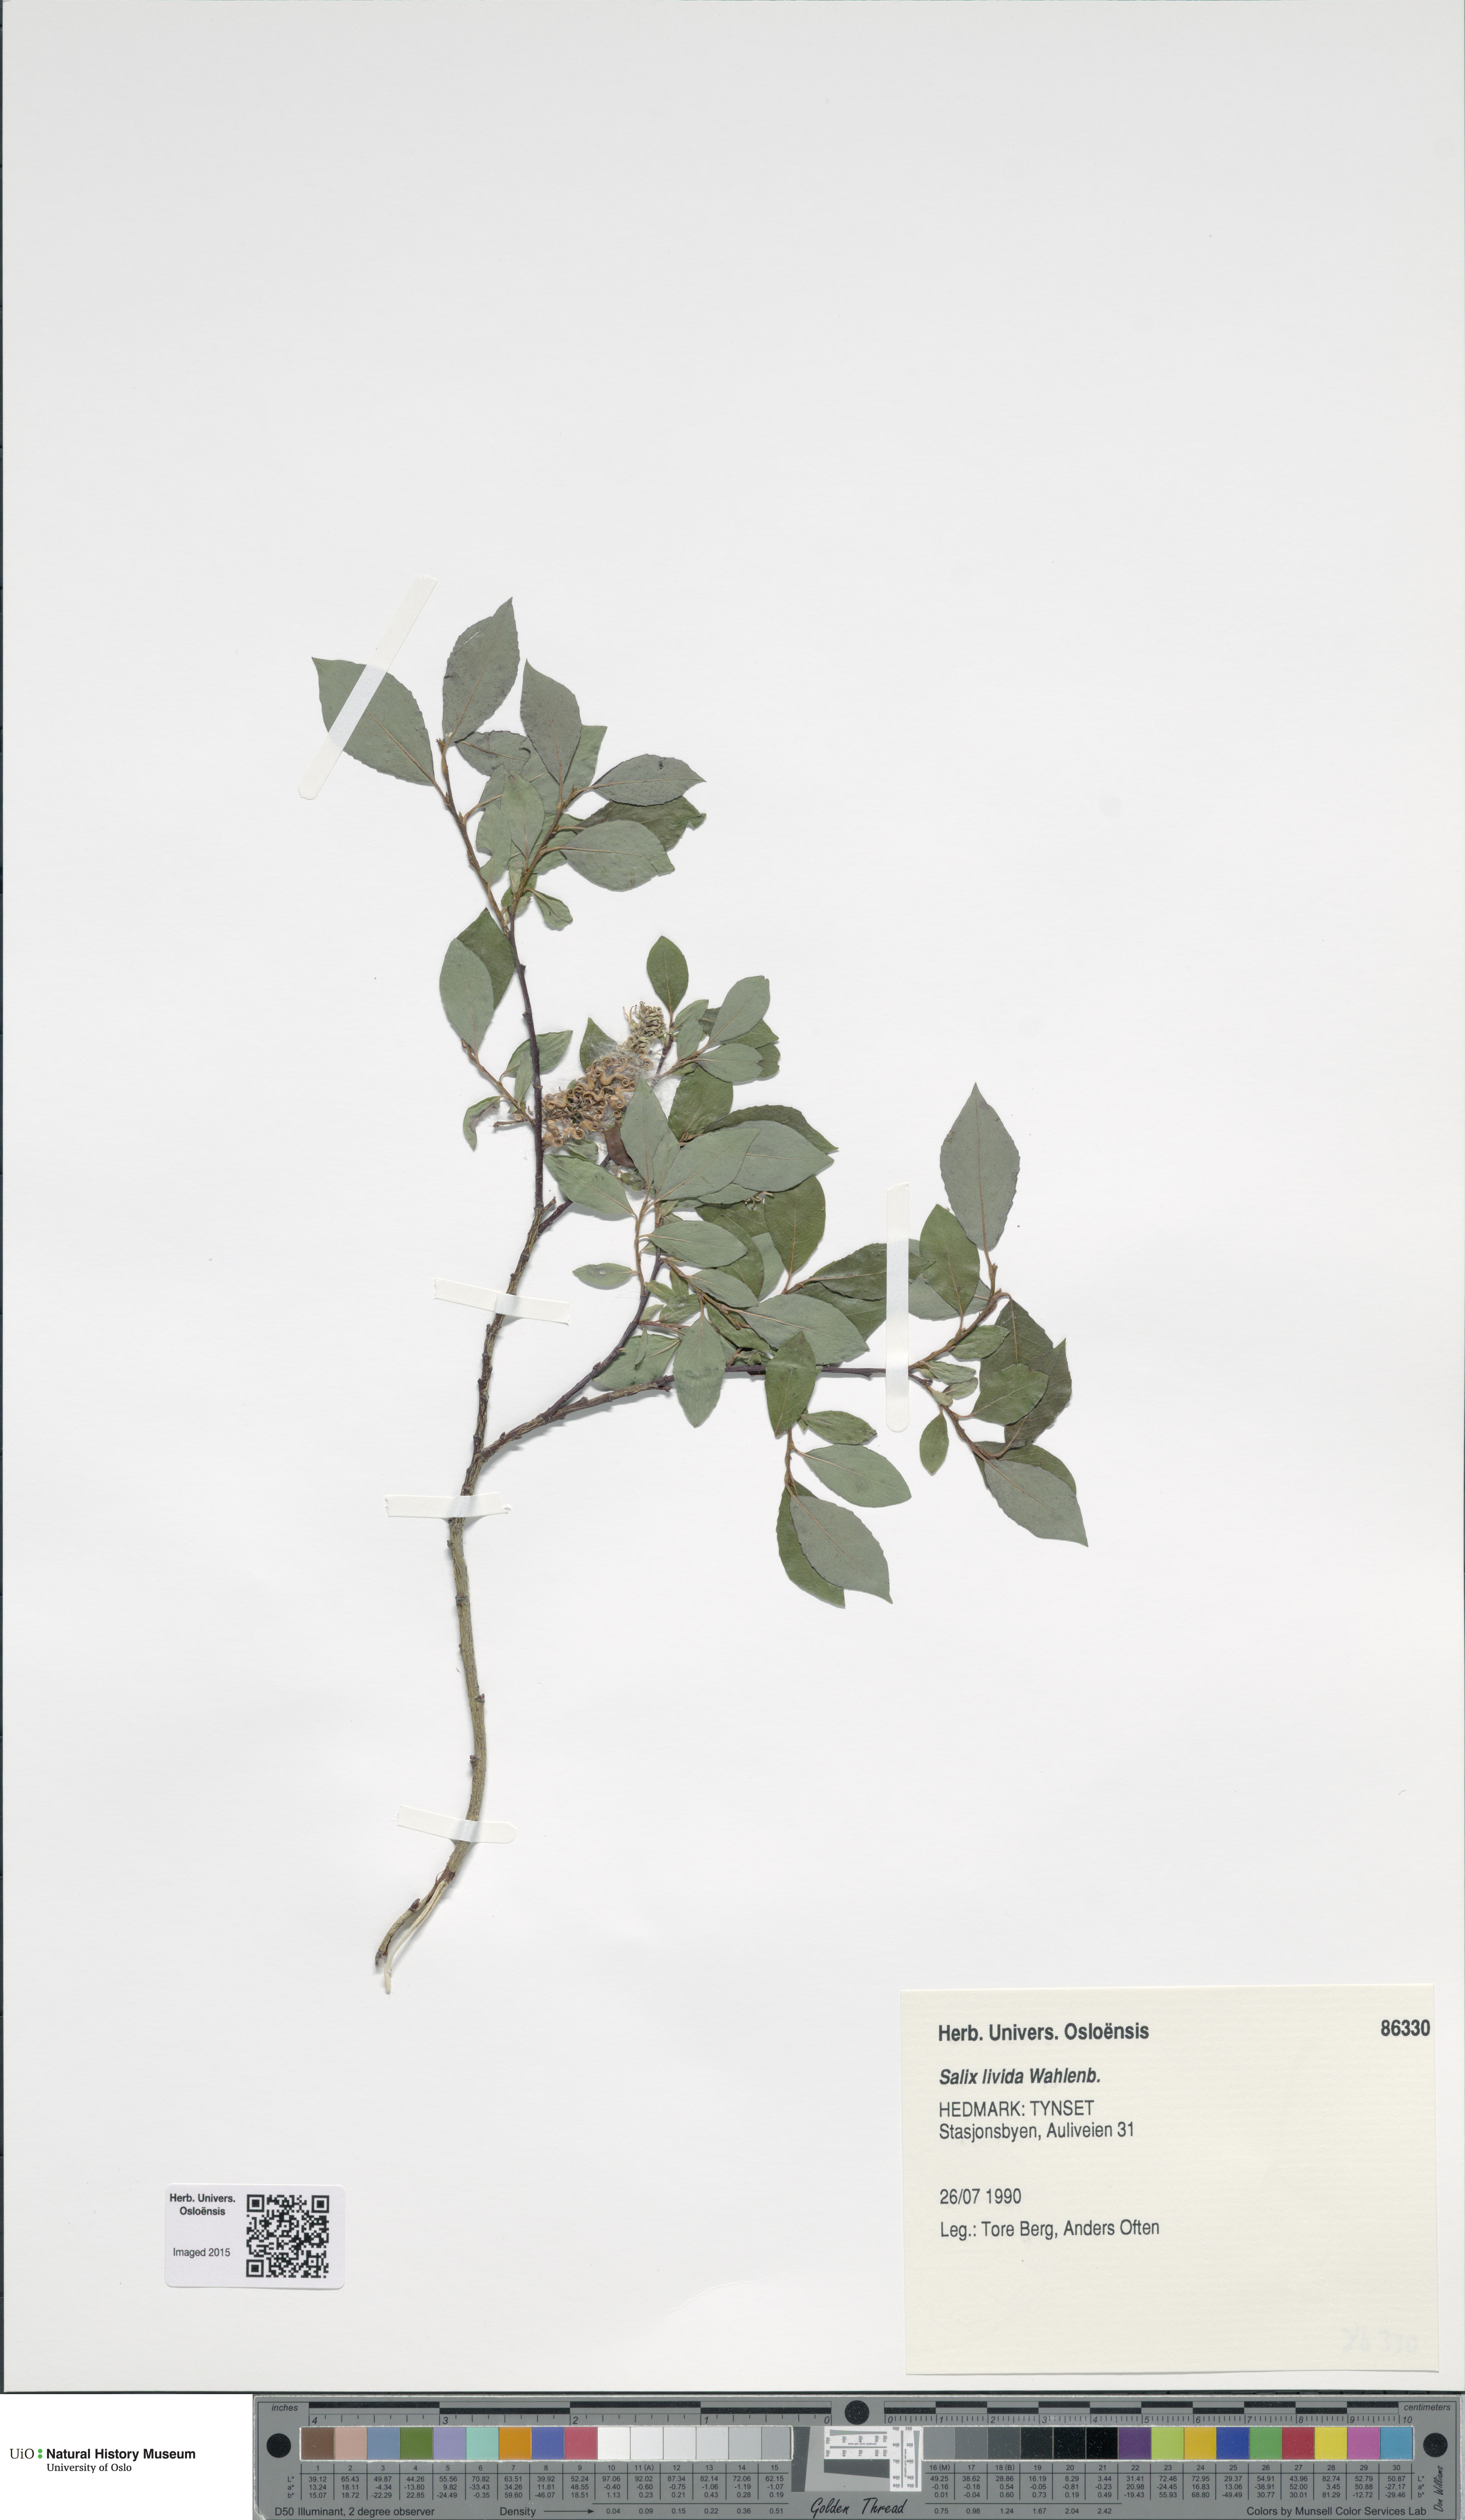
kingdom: Plantae
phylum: Tracheophyta
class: Magnoliopsida
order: Malpighiales
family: Salicaceae
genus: Salix
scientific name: Salix starkeana
